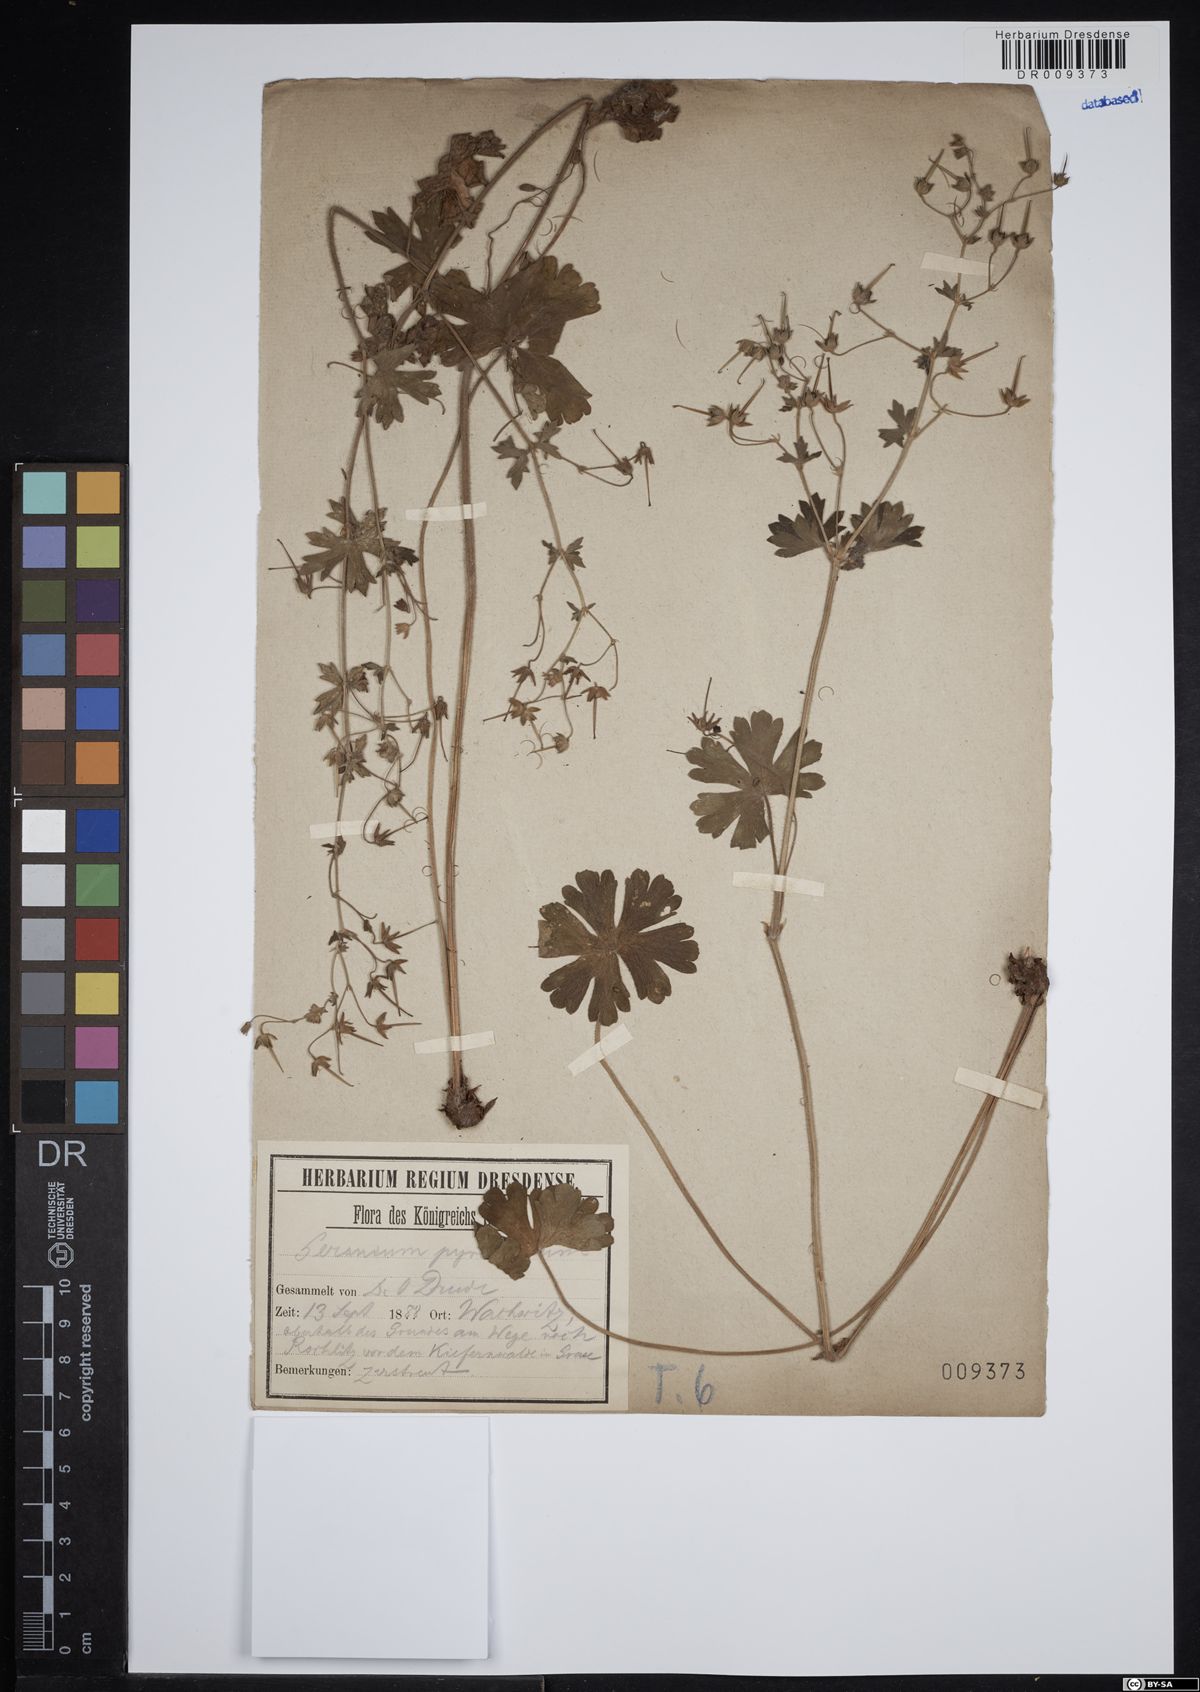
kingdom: Plantae
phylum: Tracheophyta
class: Magnoliopsida
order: Geraniales
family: Geraniaceae
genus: Geranium
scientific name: Geranium pyrenaicum
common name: Hedgerow crane's-bill
